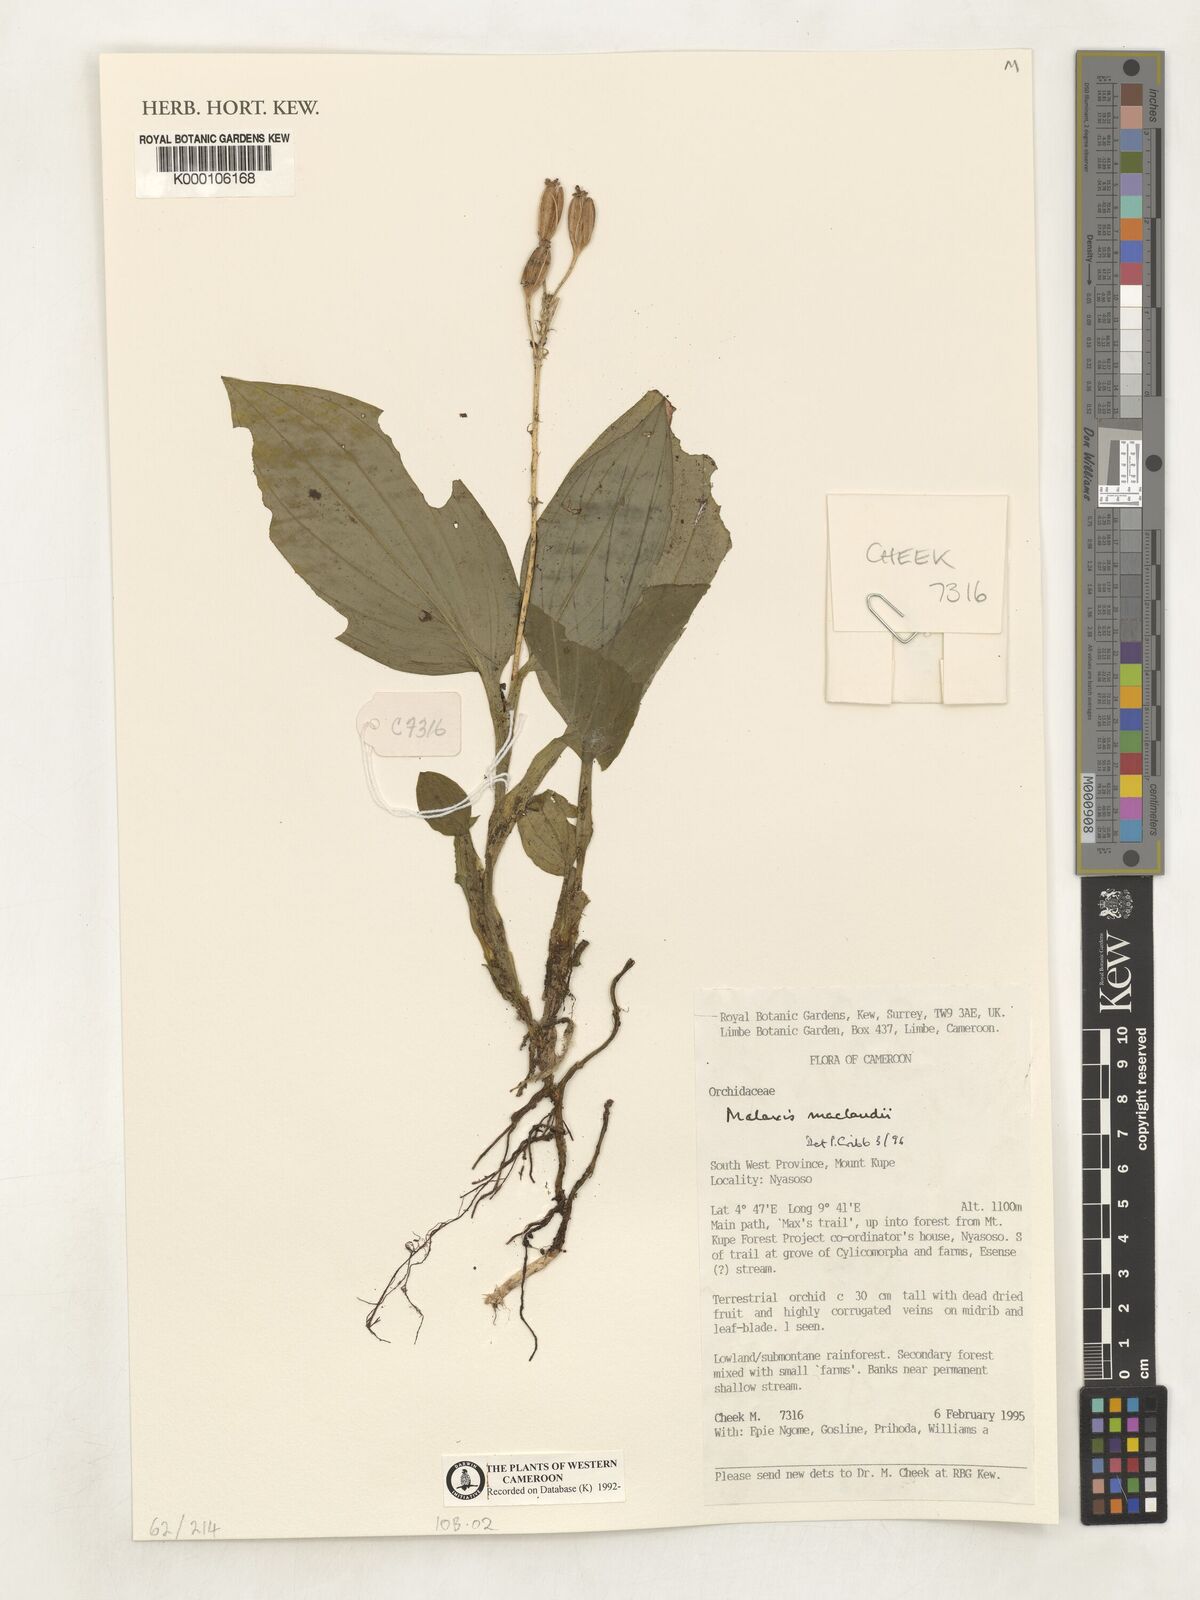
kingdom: Plantae
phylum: Tracheophyta
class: Liliopsida
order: Asparagales
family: Orchidaceae
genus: Malaxis
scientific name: Malaxis maclaudii
